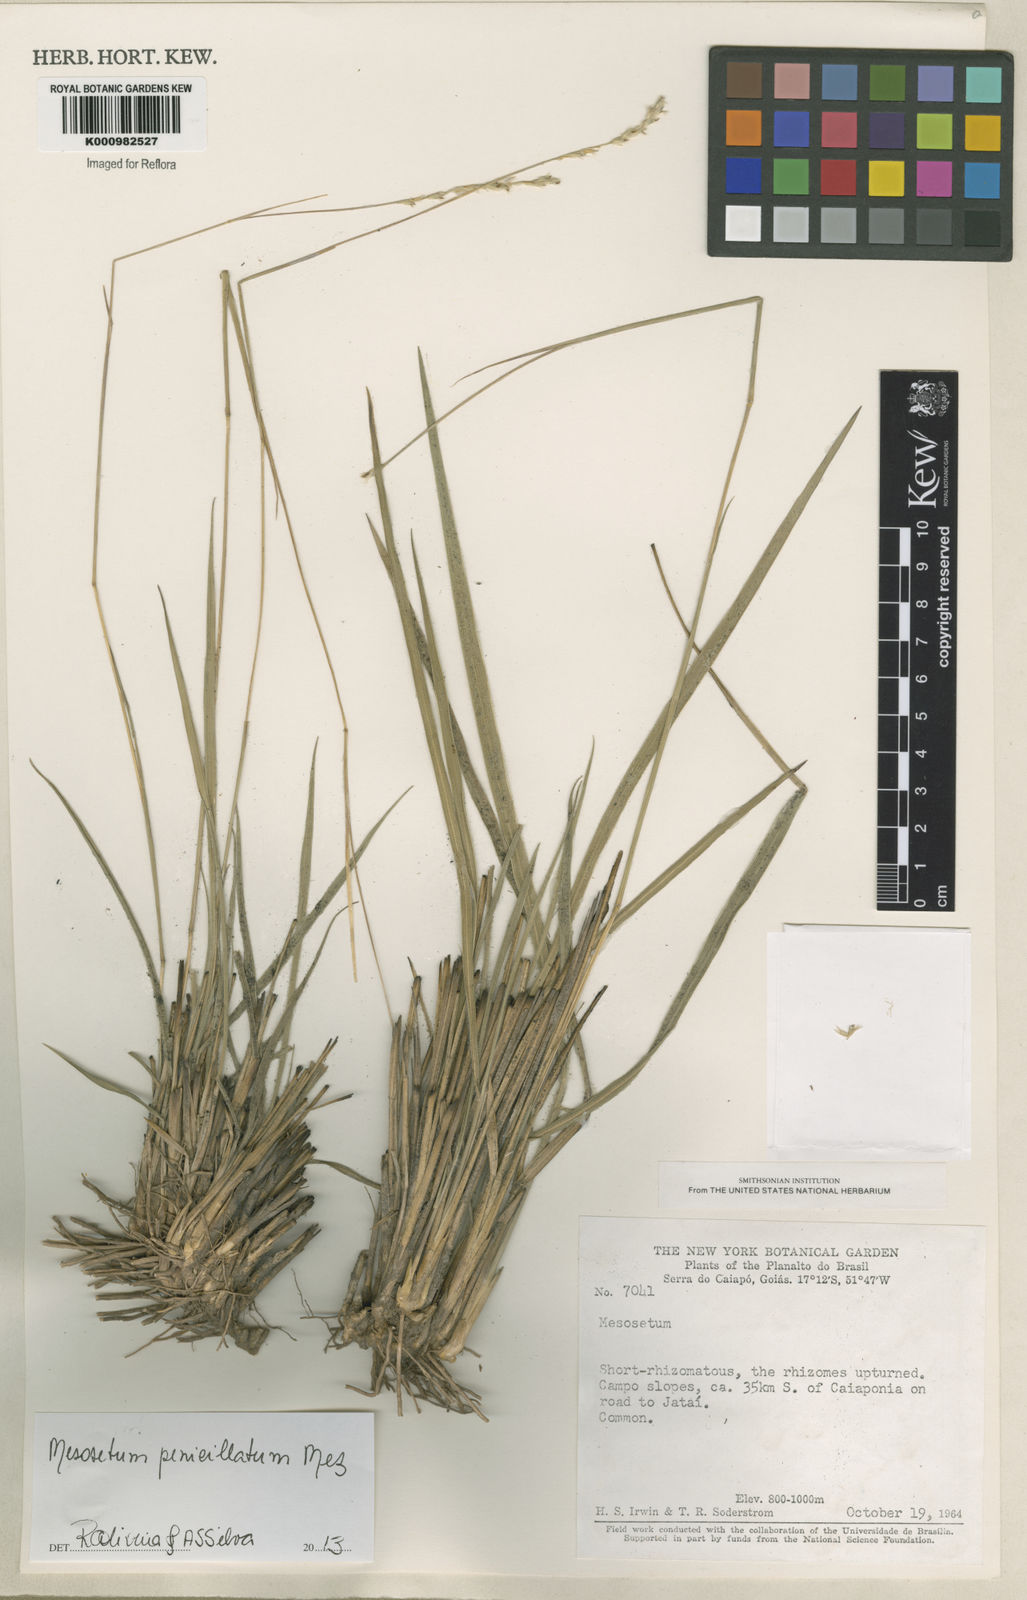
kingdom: Plantae
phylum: Tracheophyta
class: Liliopsida
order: Poales
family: Poaceae
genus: Mesosetum
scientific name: Mesosetum penicillatum
